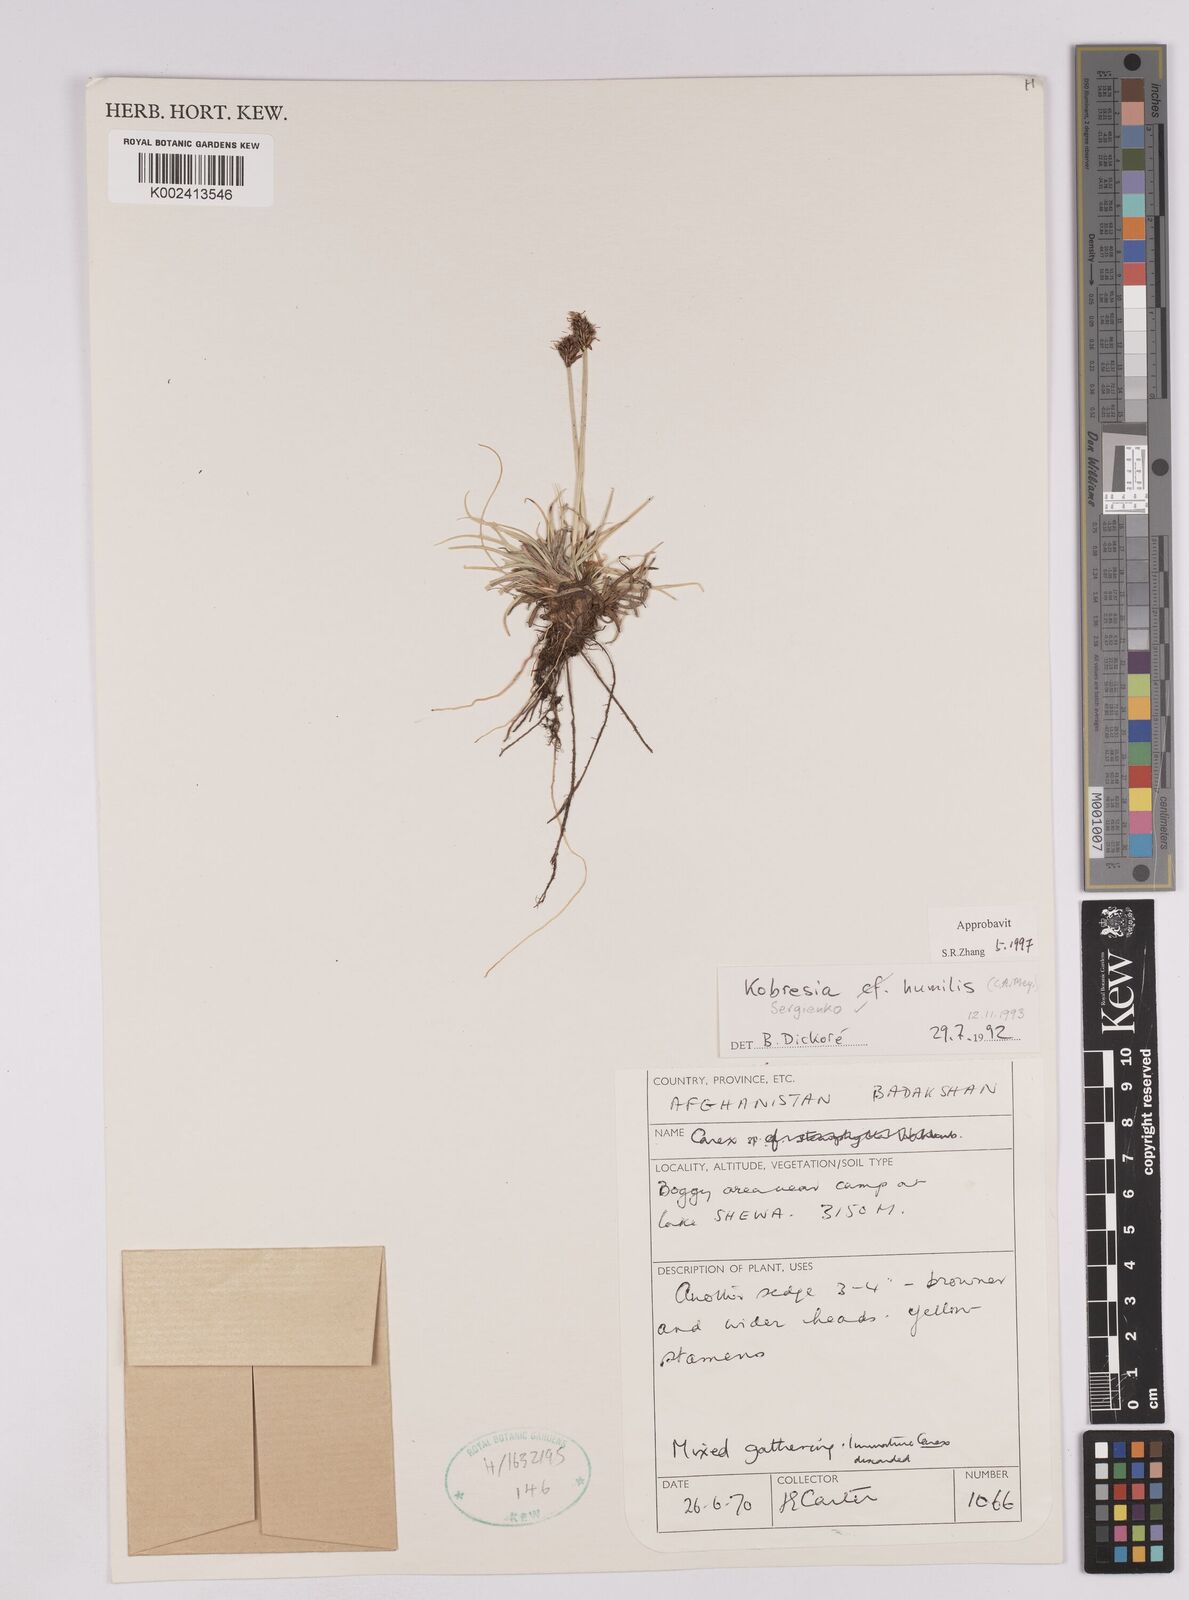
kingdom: Plantae
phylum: Tracheophyta
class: Liliopsida
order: Poales
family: Cyperaceae
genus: Carex
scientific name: Carex alatauensis
